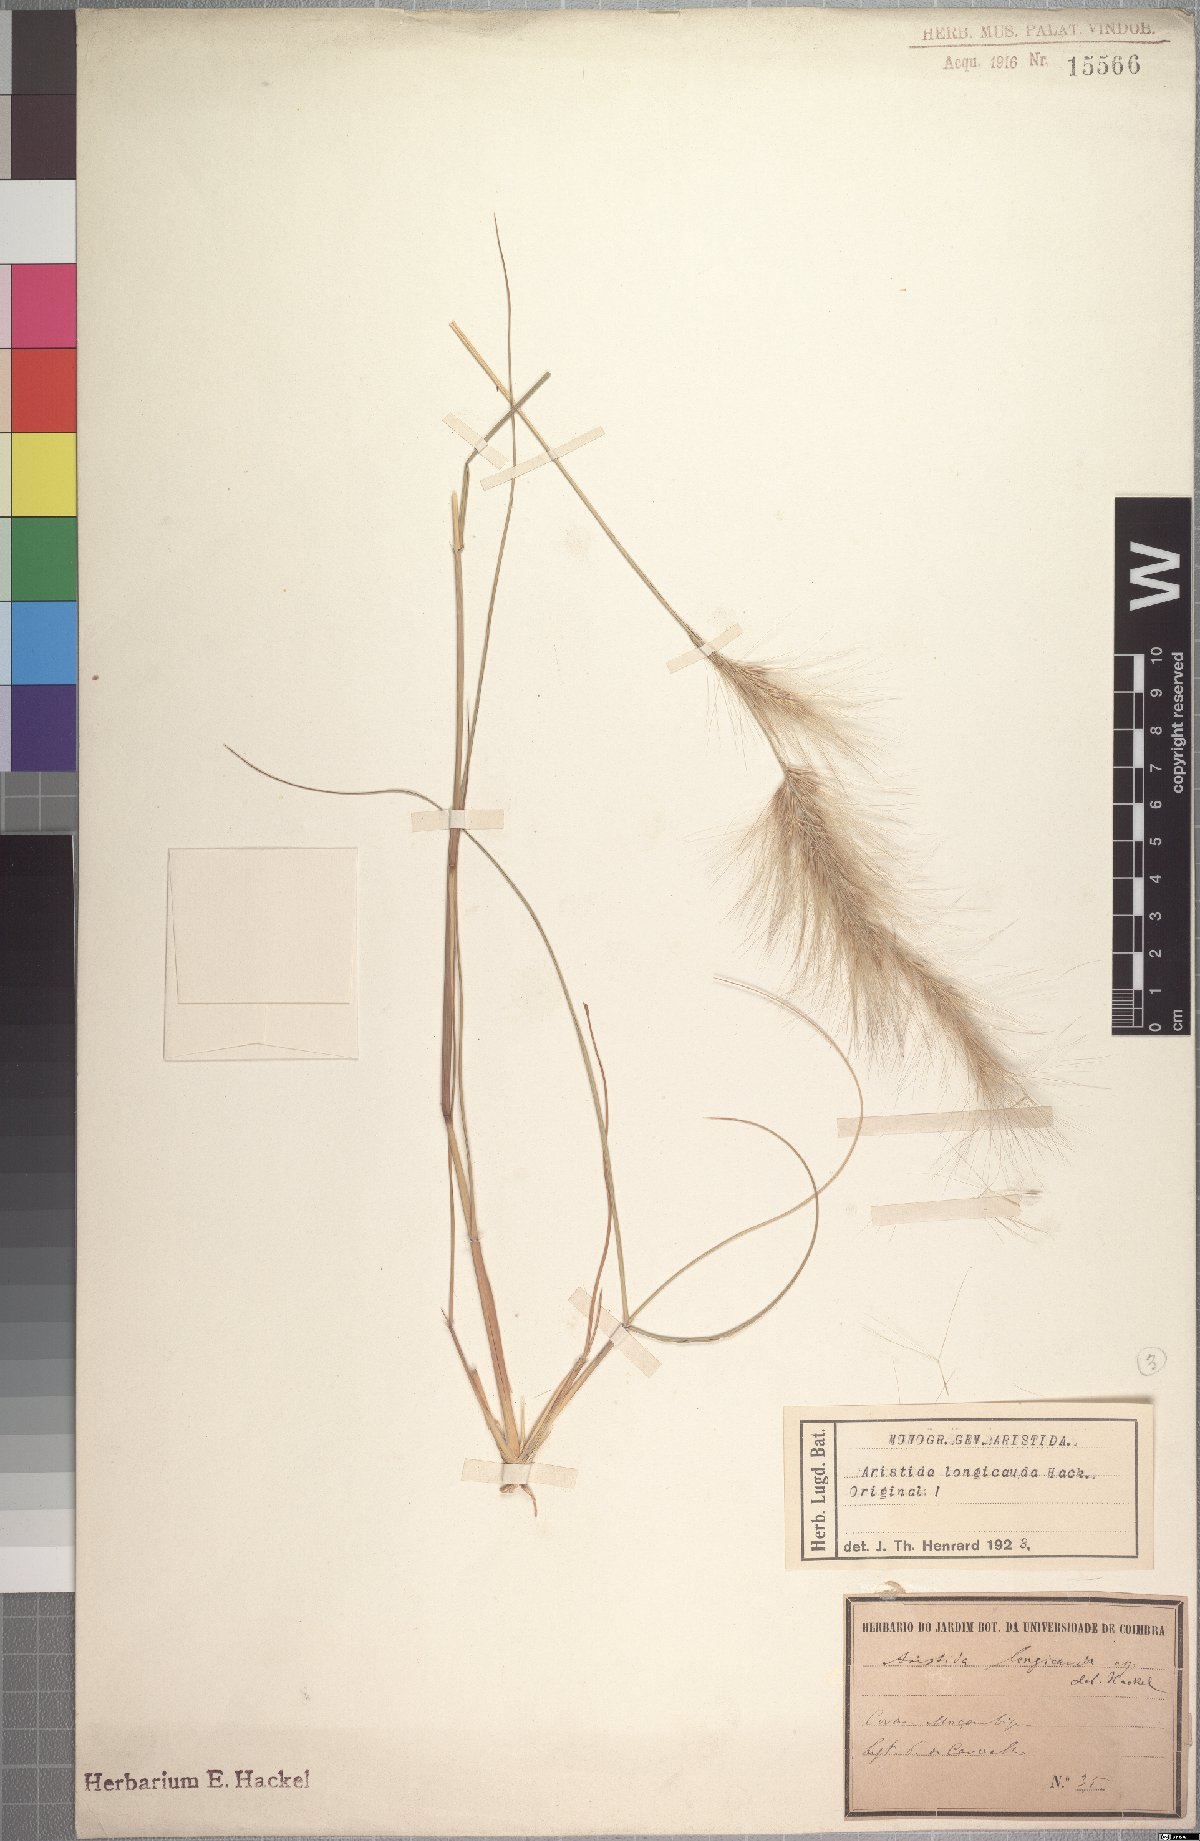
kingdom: Plantae
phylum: Tracheophyta
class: Liliopsida
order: Poales
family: Poaceae
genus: Aristida
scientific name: Aristida congesta
